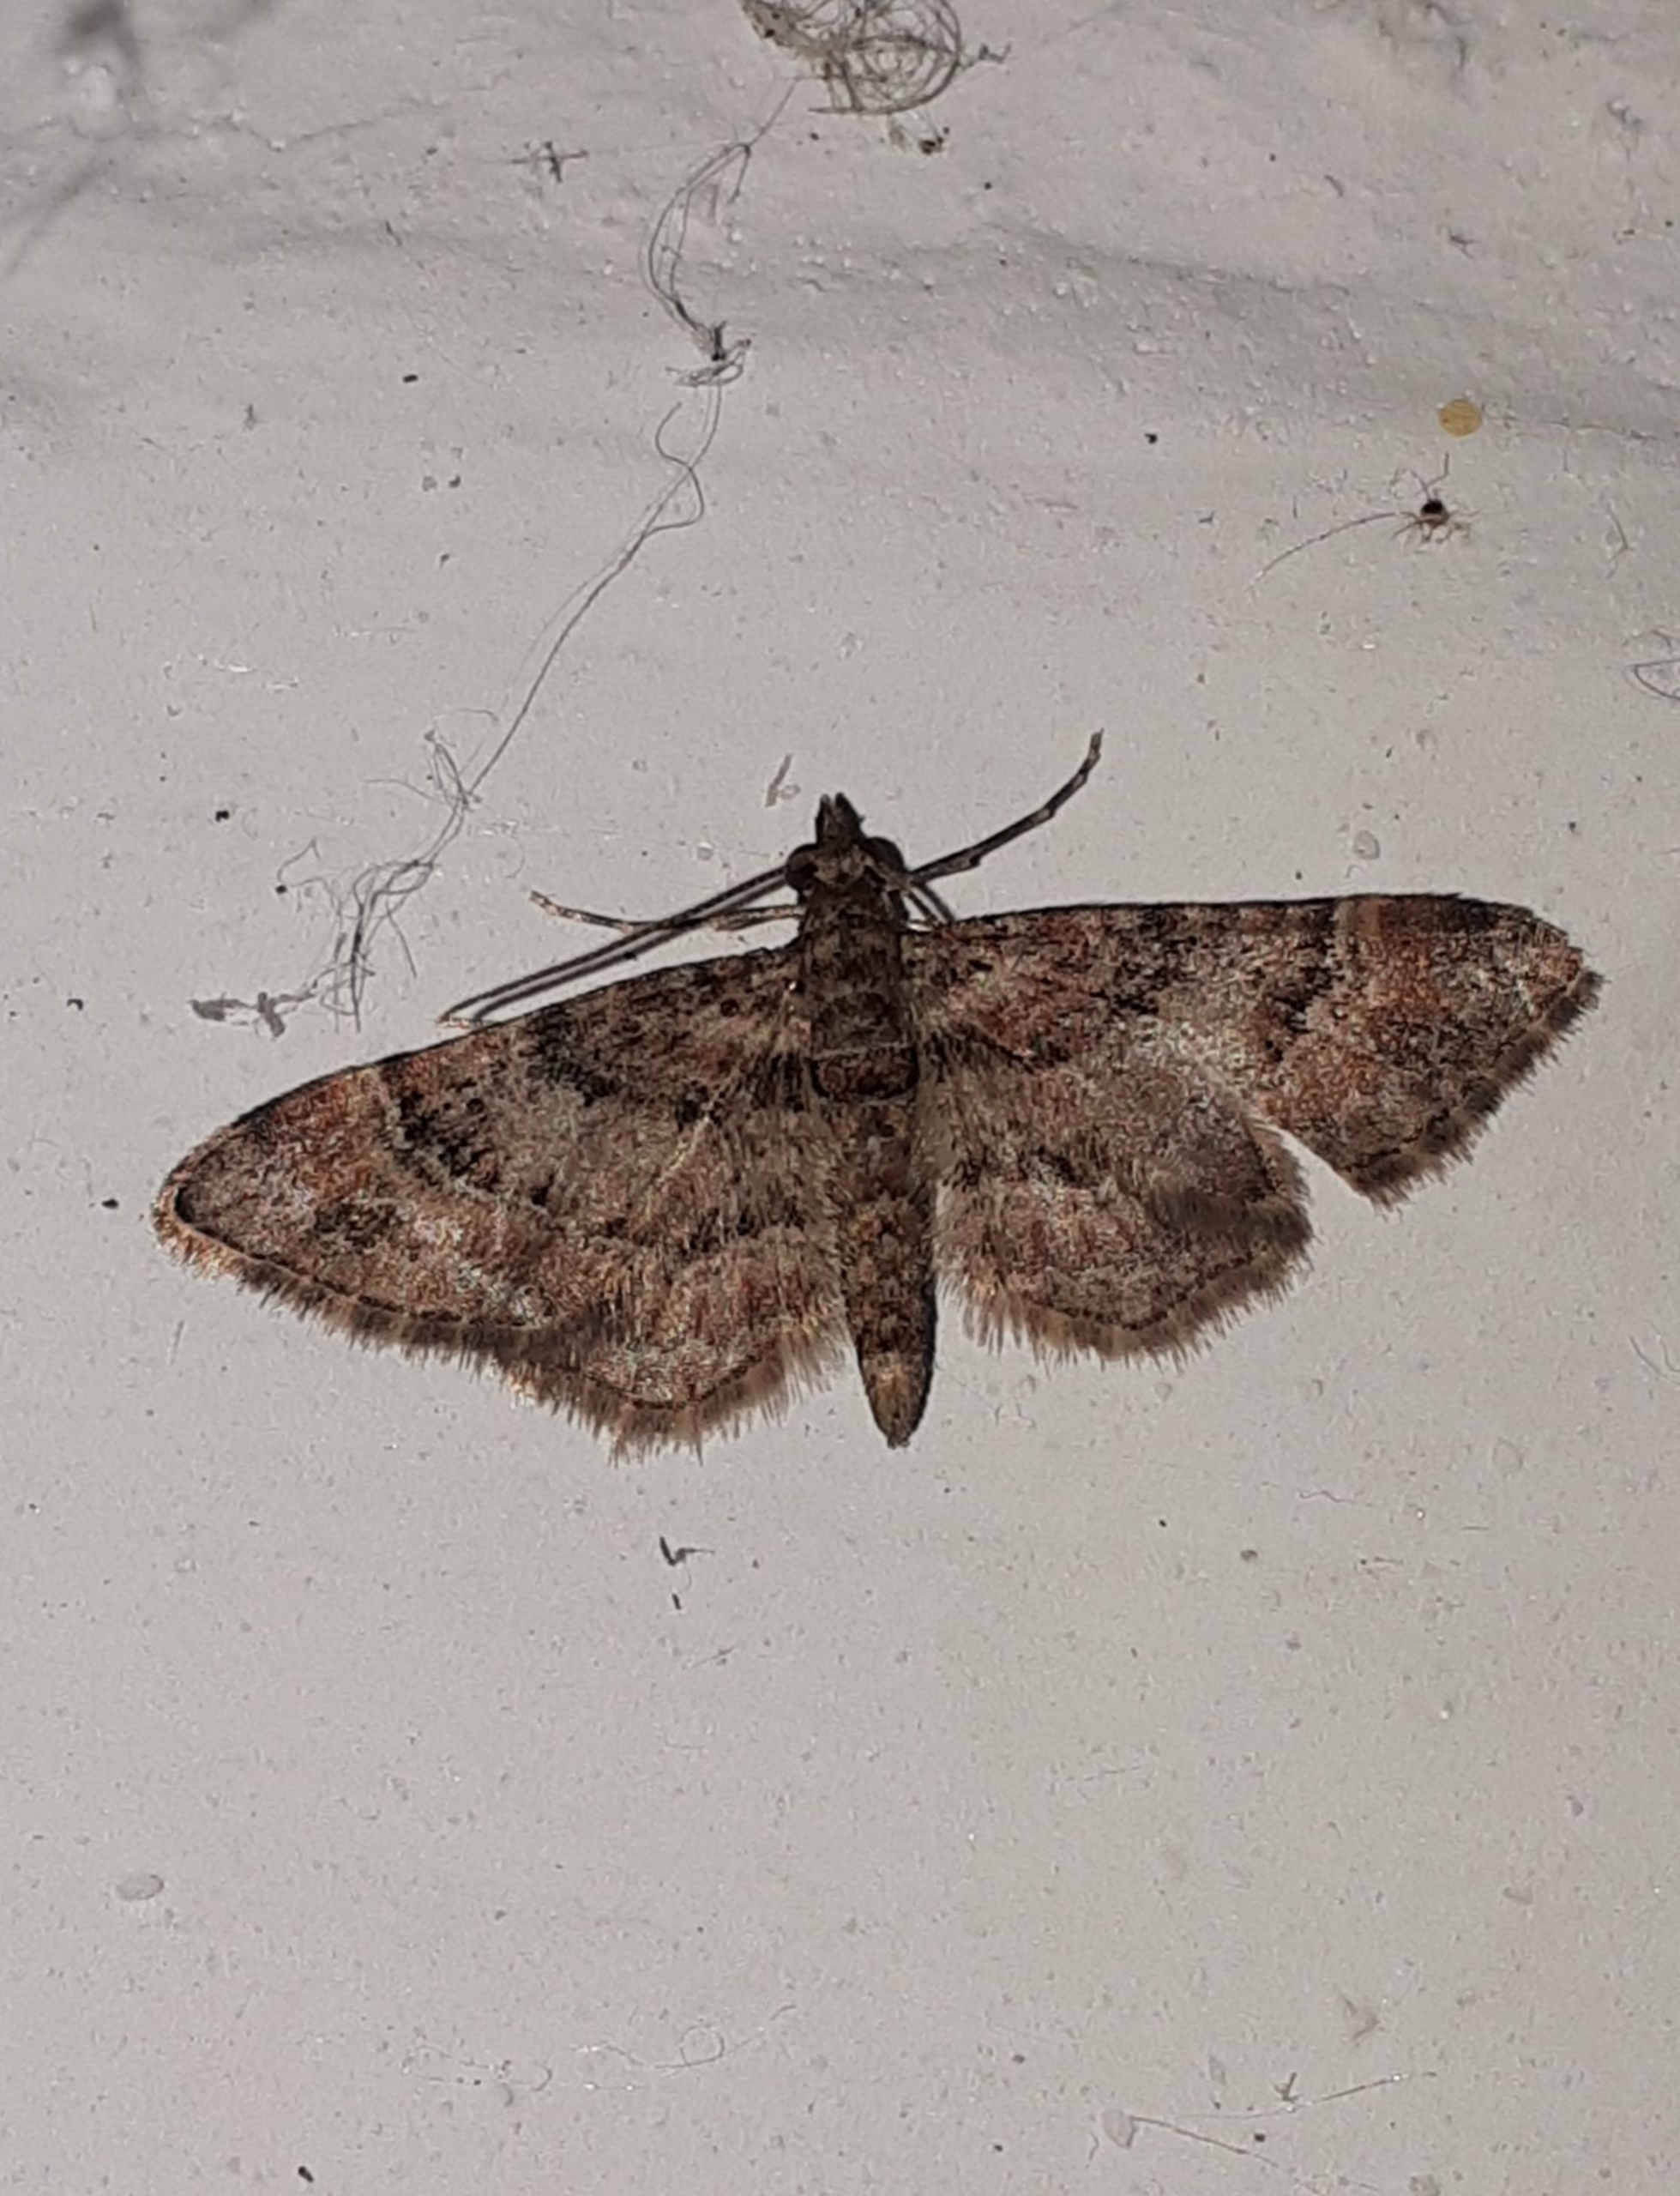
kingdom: Animalia
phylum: Arthropoda
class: Insecta
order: Lepidoptera
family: Geometridae
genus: Gymnoscelis
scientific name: Gymnoscelis rufifasciata
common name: Rødbåndet dværgmåler
